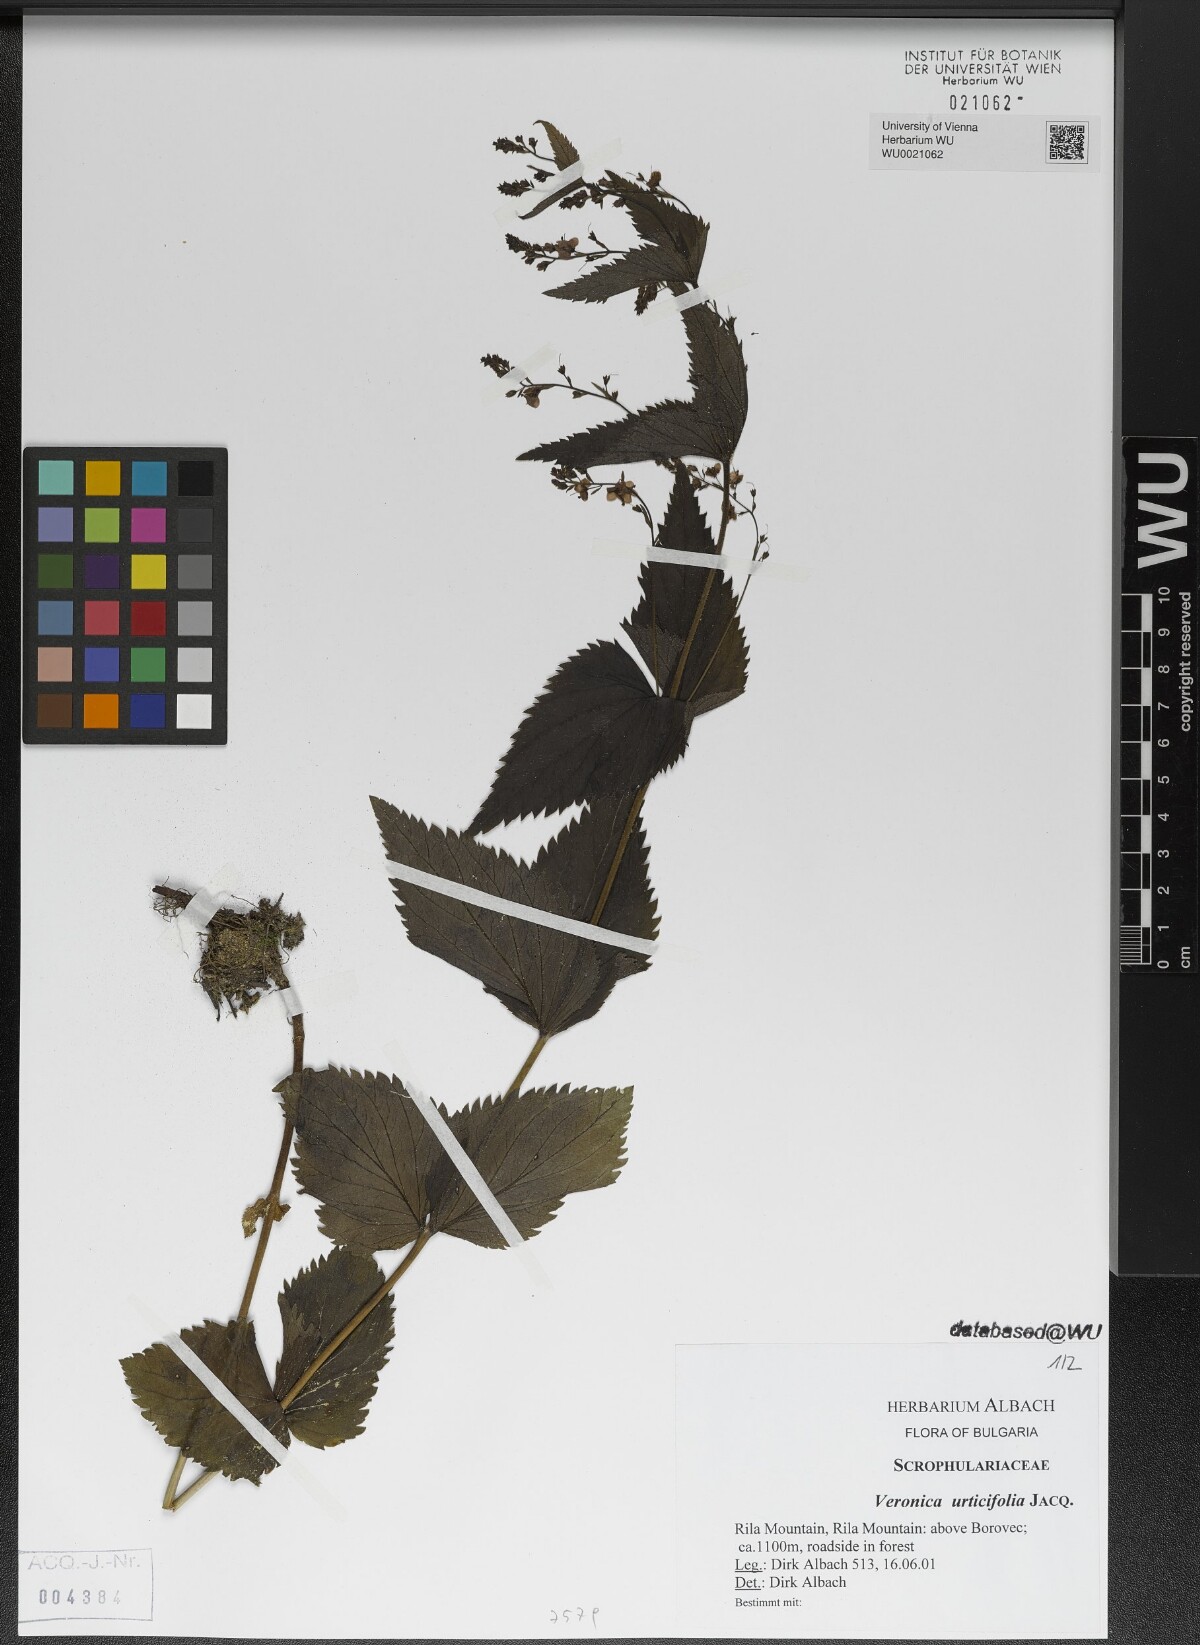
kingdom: Plantae
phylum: Tracheophyta
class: Magnoliopsida
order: Lamiales
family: Plantaginaceae
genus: Veronica
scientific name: Veronica urticifolia
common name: Nettle-leaf speedwell
